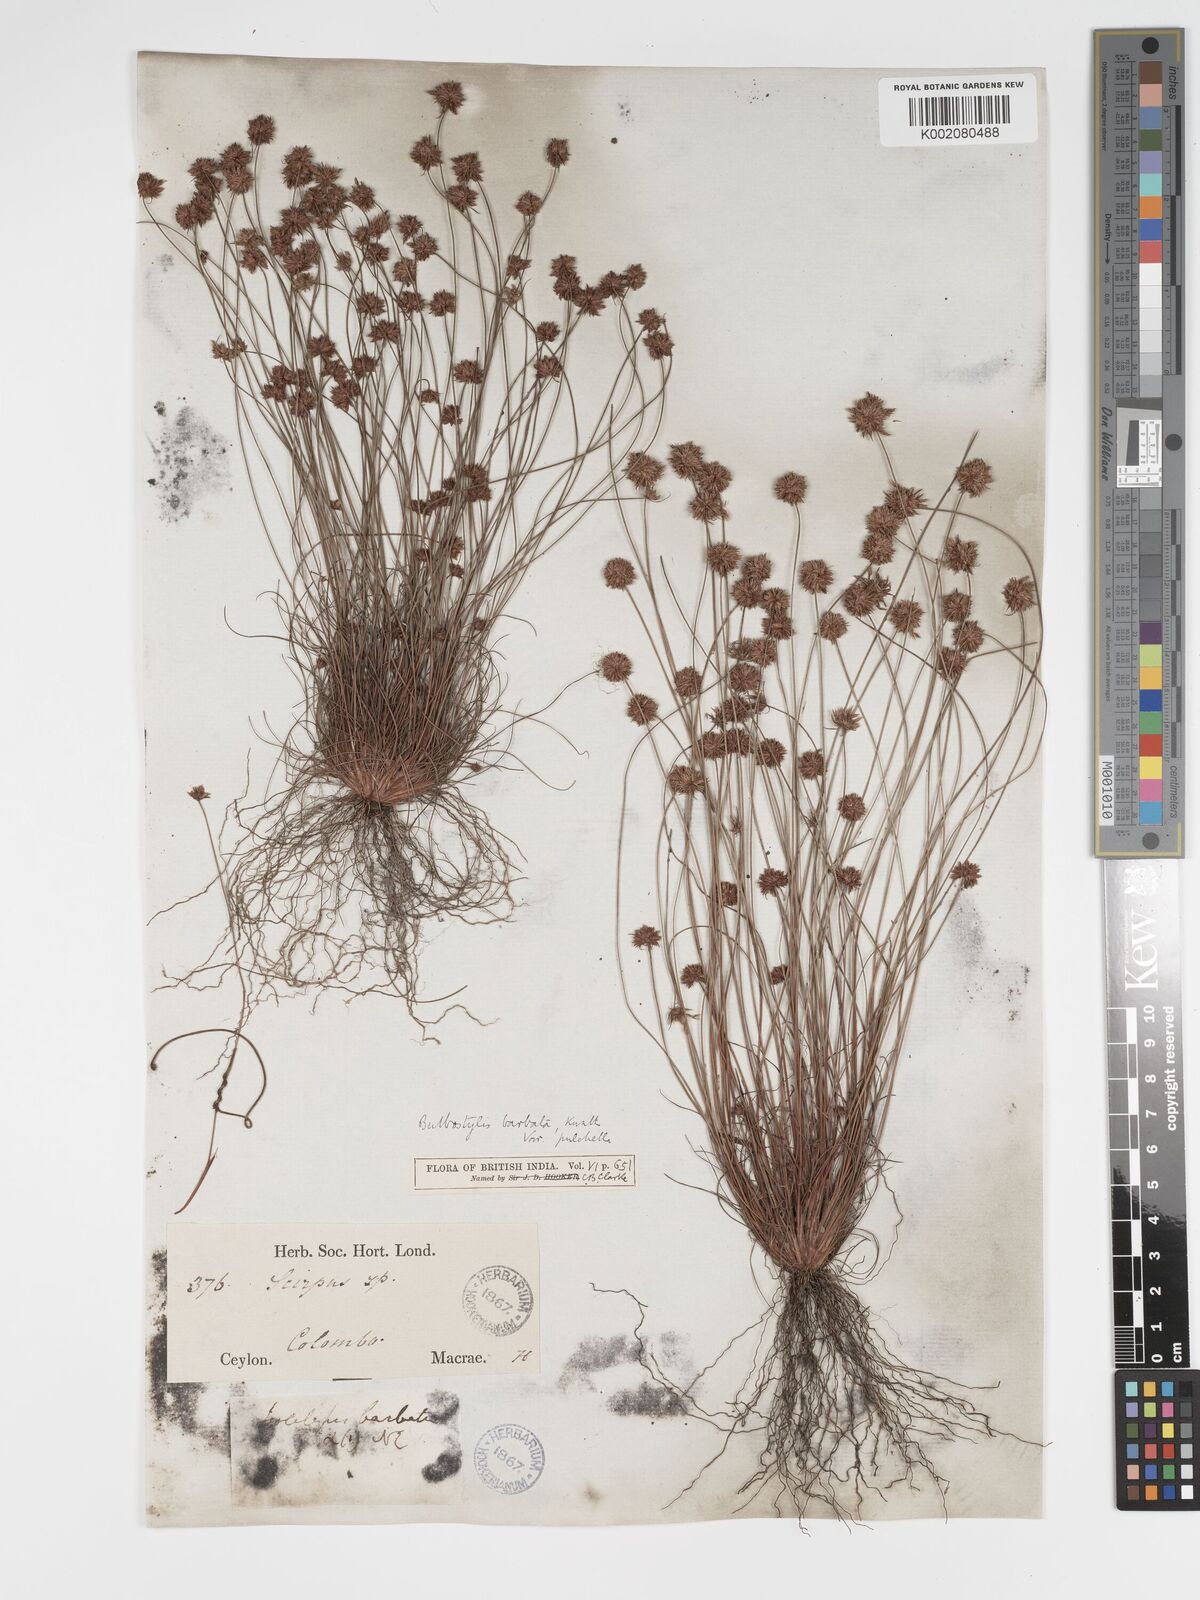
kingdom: Plantae
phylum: Tracheophyta
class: Liliopsida
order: Poales
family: Cyperaceae
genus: Bulbostylis
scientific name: Bulbostylis barbata
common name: Watergrass
